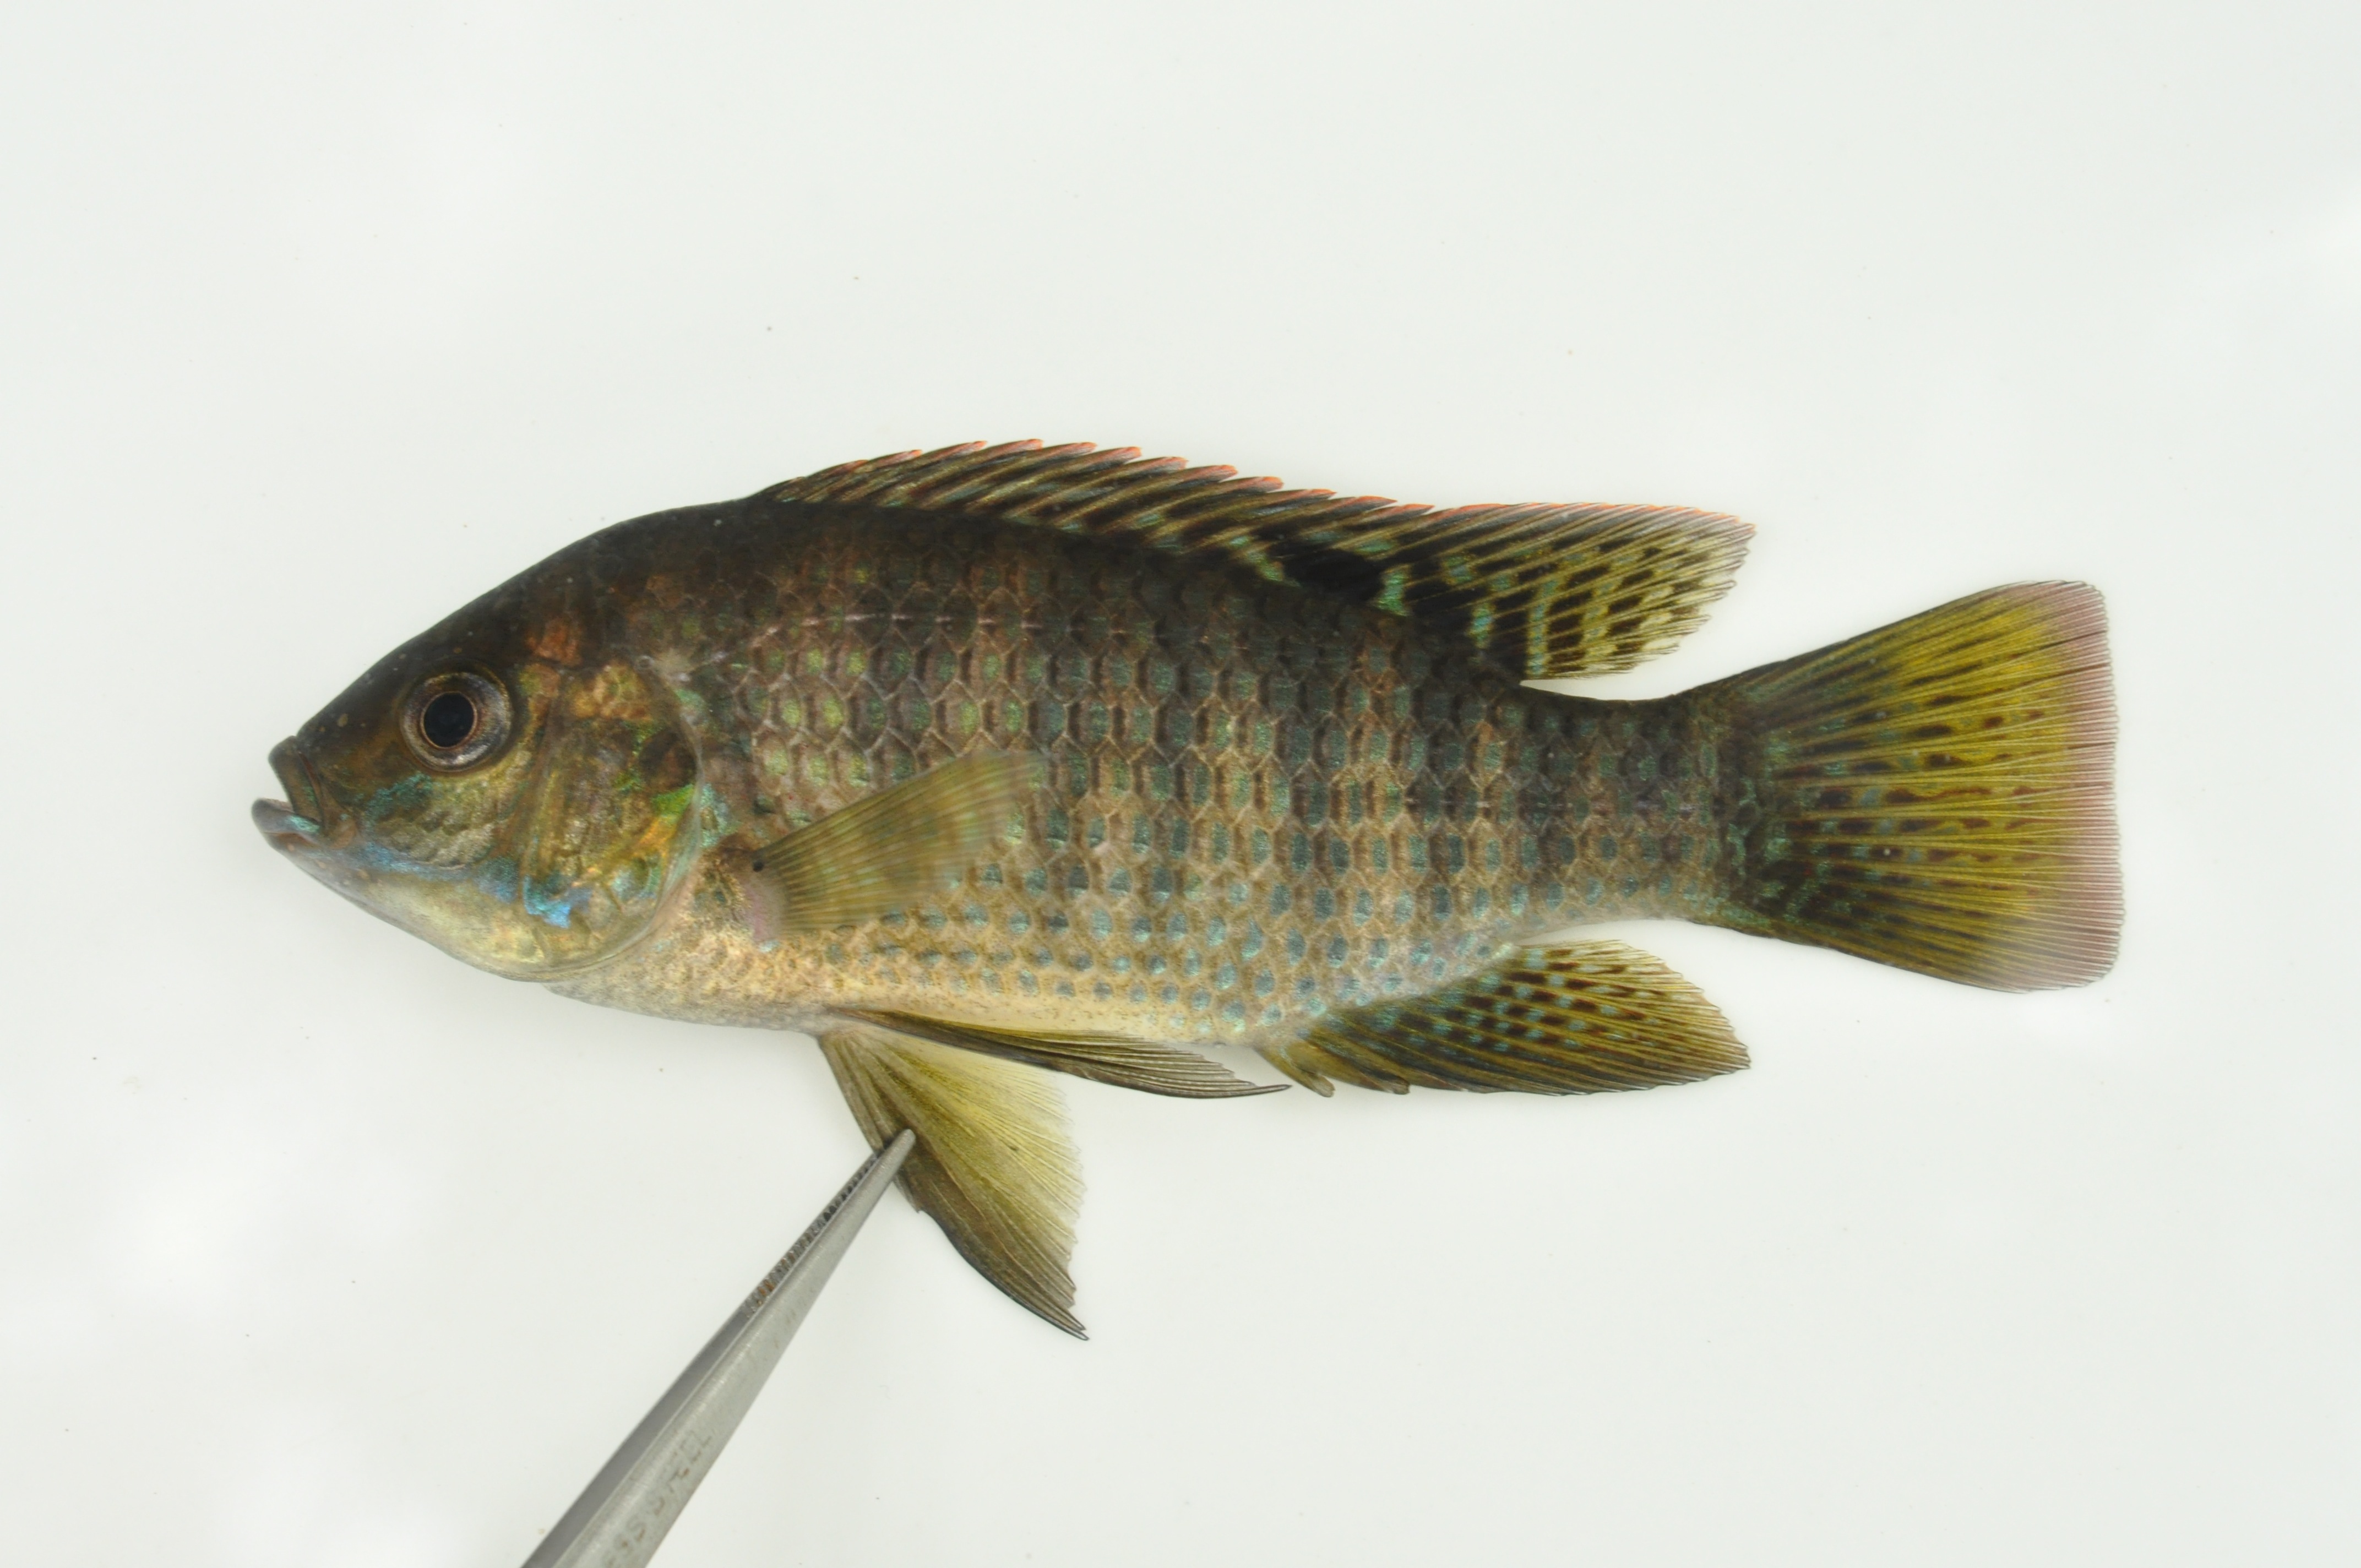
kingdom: Animalia
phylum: Chordata
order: Perciformes
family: Cichlidae
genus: Tilapia
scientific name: Tilapia sparrmanii
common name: Banded tilapia
